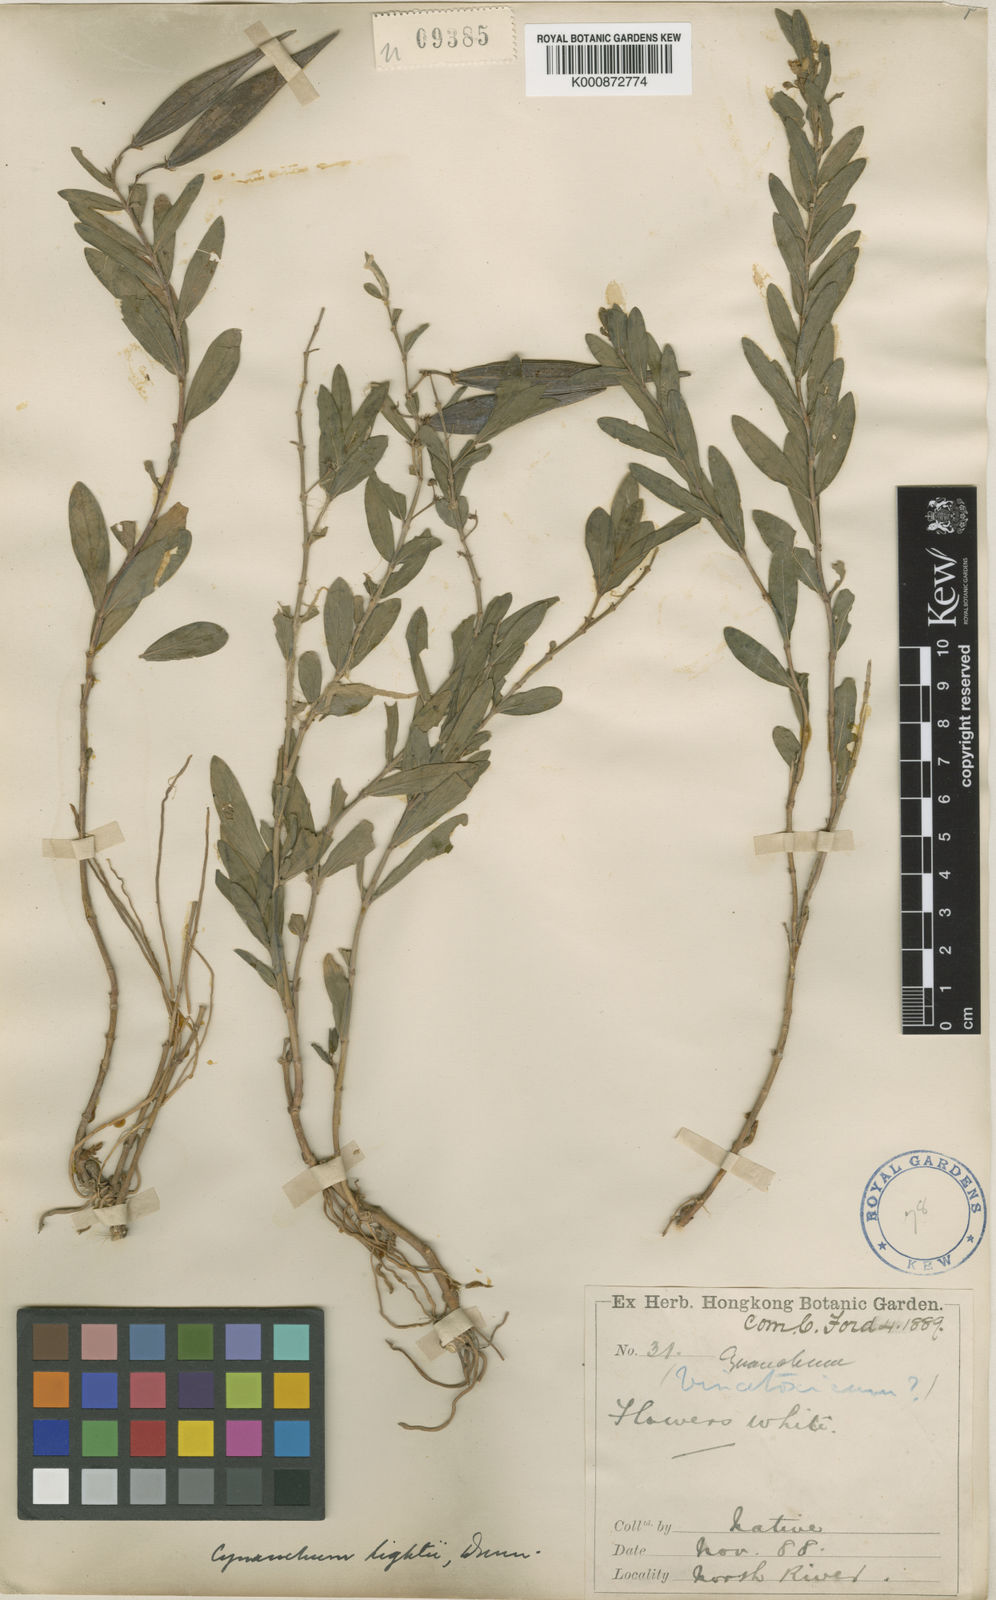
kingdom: Plantae
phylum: Tracheophyta
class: Magnoliopsida
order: Gentianales
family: Apocynaceae
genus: Vincetoxicum
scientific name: Vincetoxicum glaucescens
